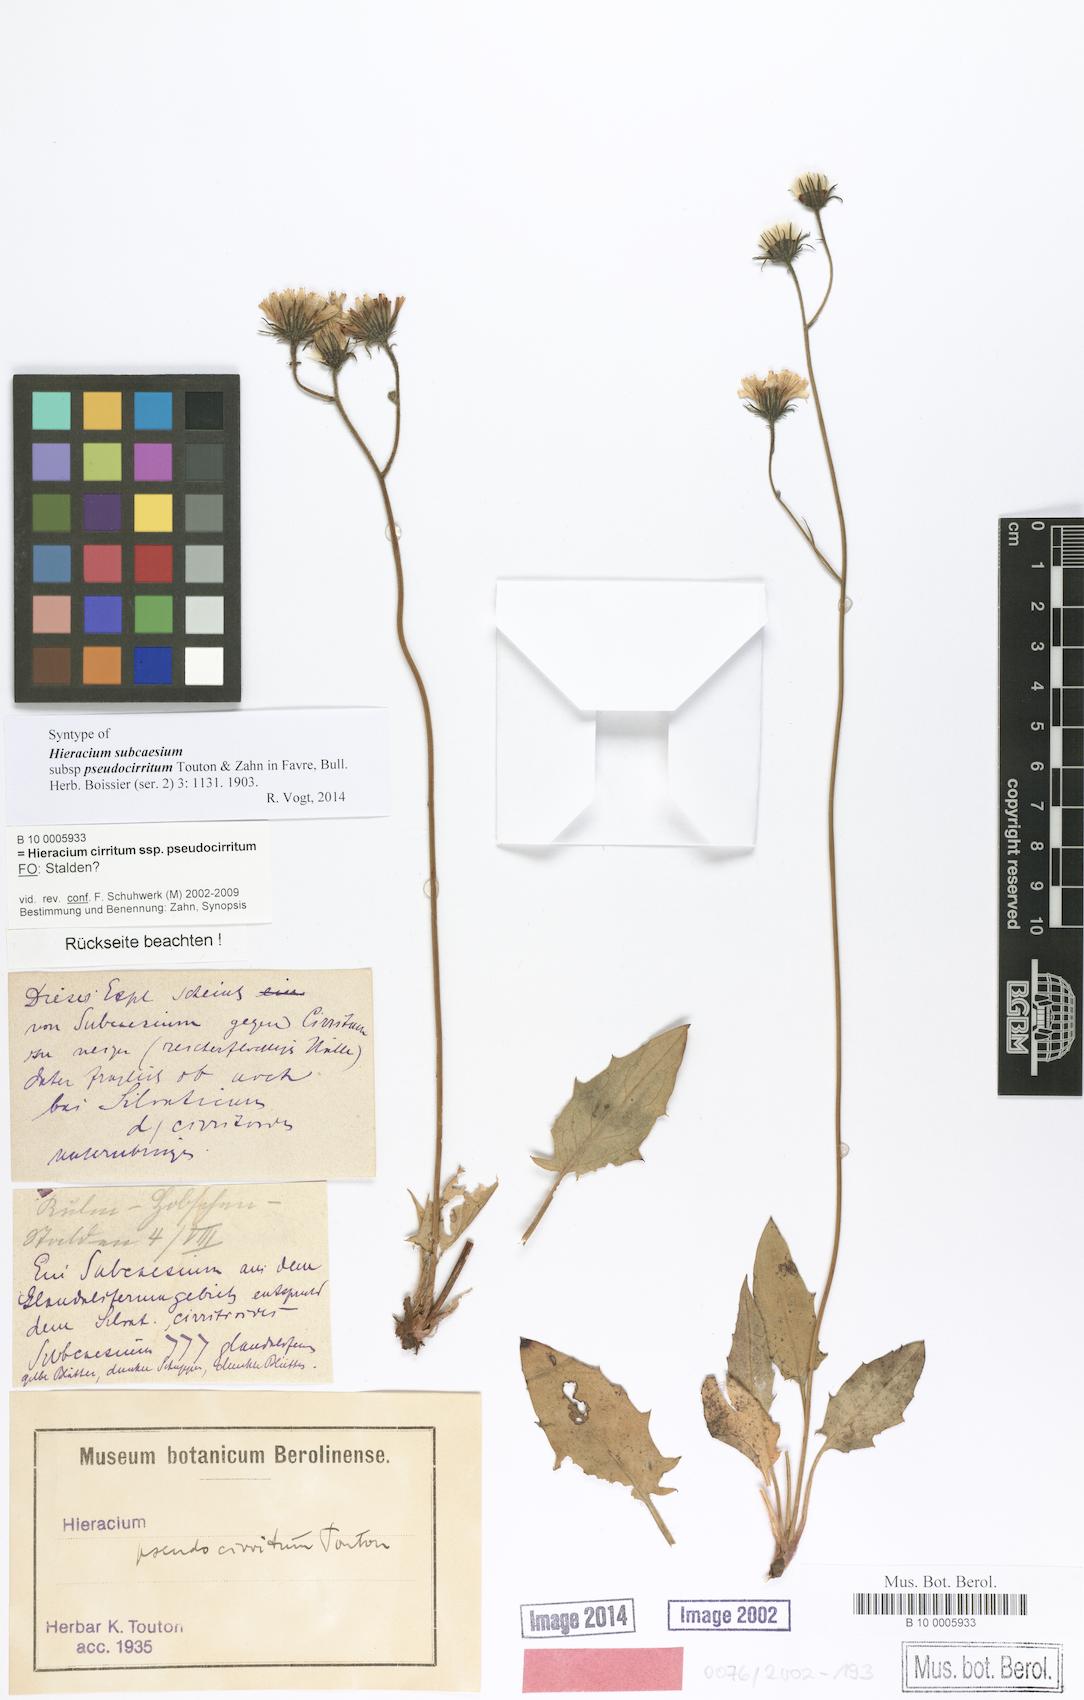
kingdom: Plantae
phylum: Tracheophyta
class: Magnoliopsida
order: Asterales
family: Asteraceae
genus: Hieracium
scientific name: Hieracium cirritum
